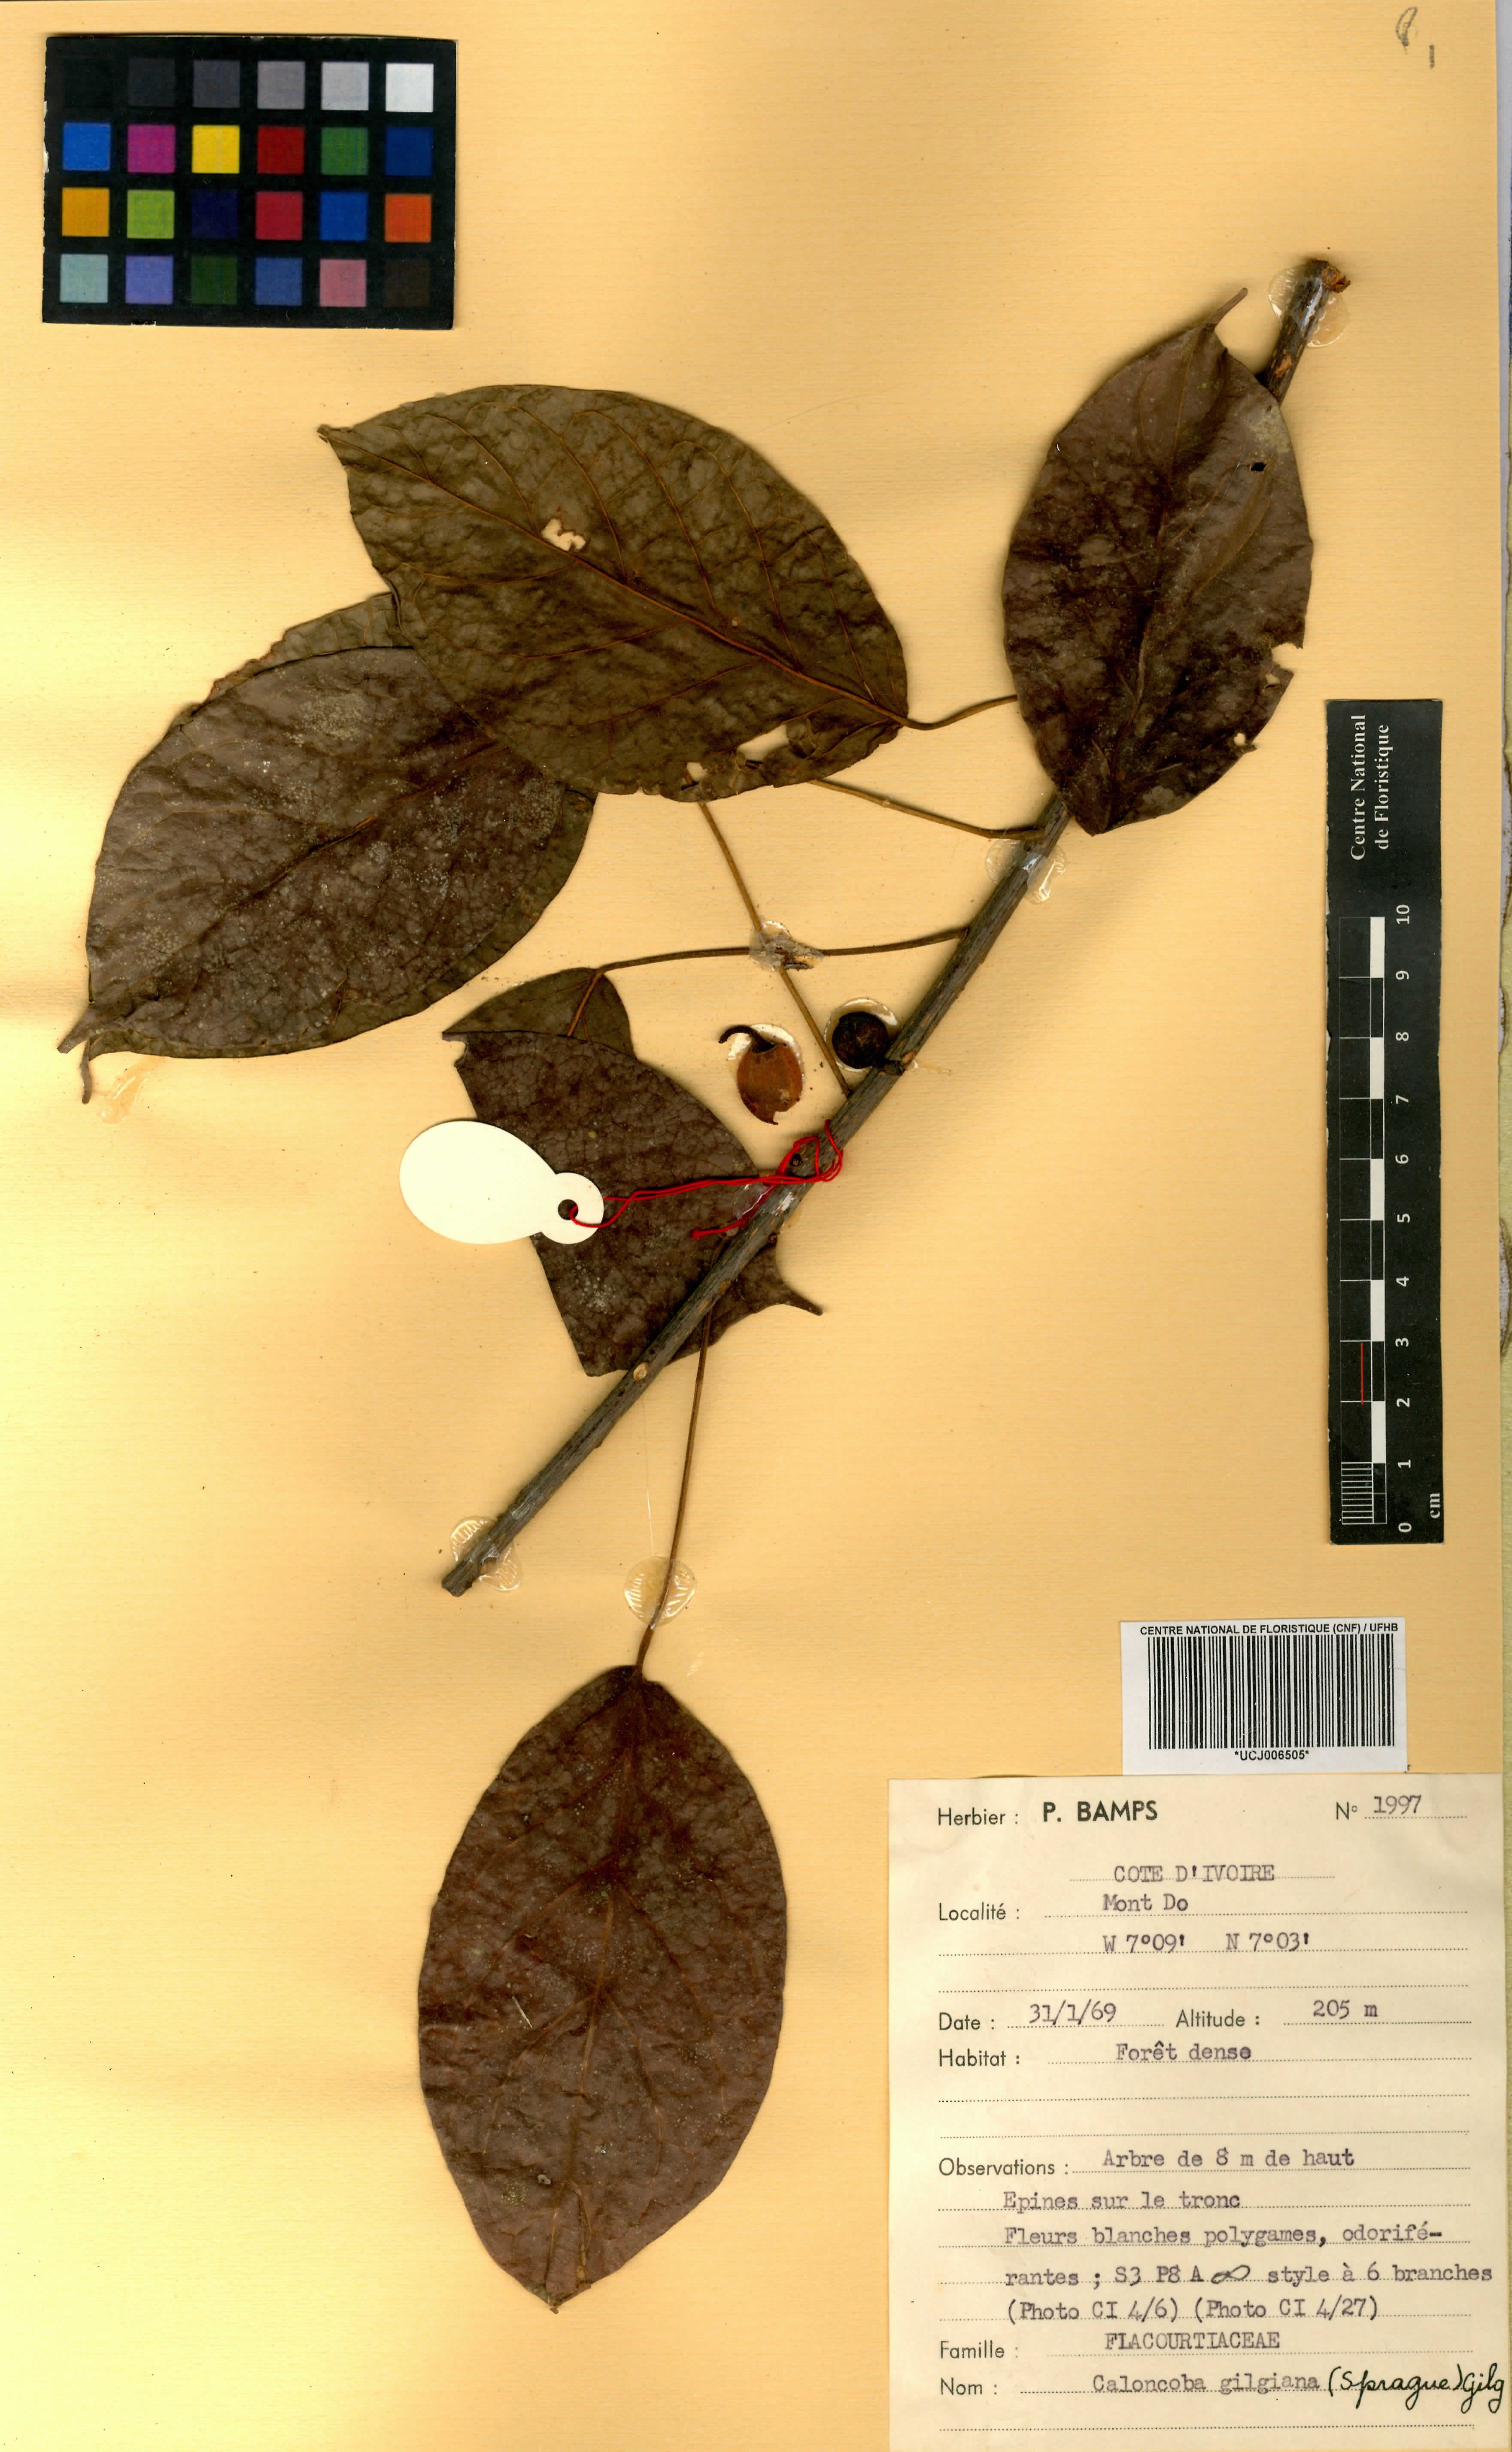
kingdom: Plantae
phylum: Tracheophyta
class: Magnoliopsida
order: Malpighiales
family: Achariaceae
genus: Caloncoba
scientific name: Caloncoba gilgiana
